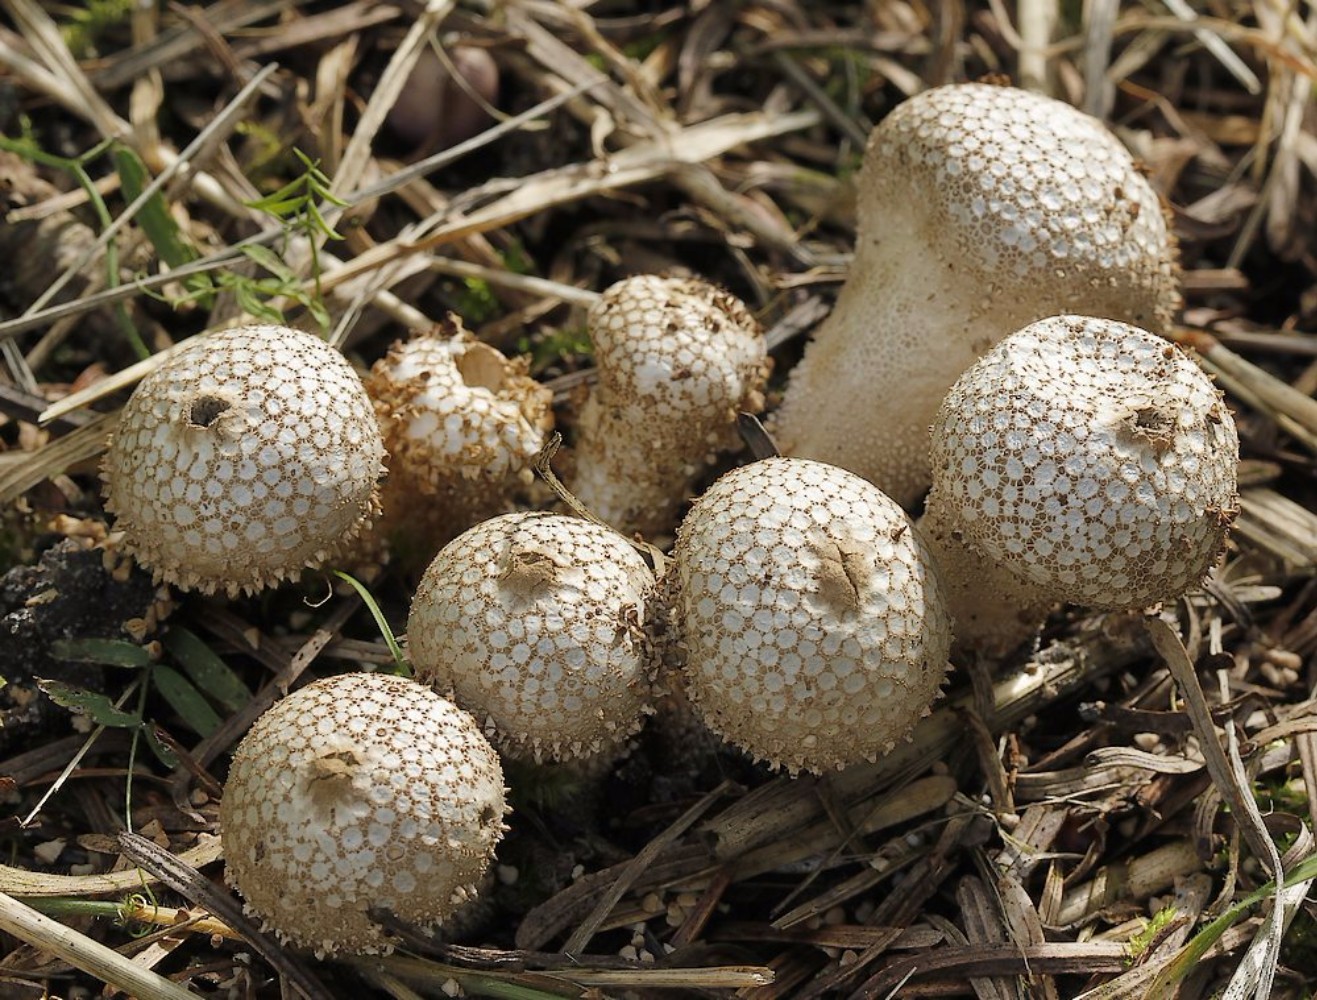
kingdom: Fungi
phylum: Basidiomycota
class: Agaricomycetes
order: Agaricales
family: Lycoperdaceae
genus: Lycoperdon
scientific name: Lycoperdon perlatum
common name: krystal-støvbold
